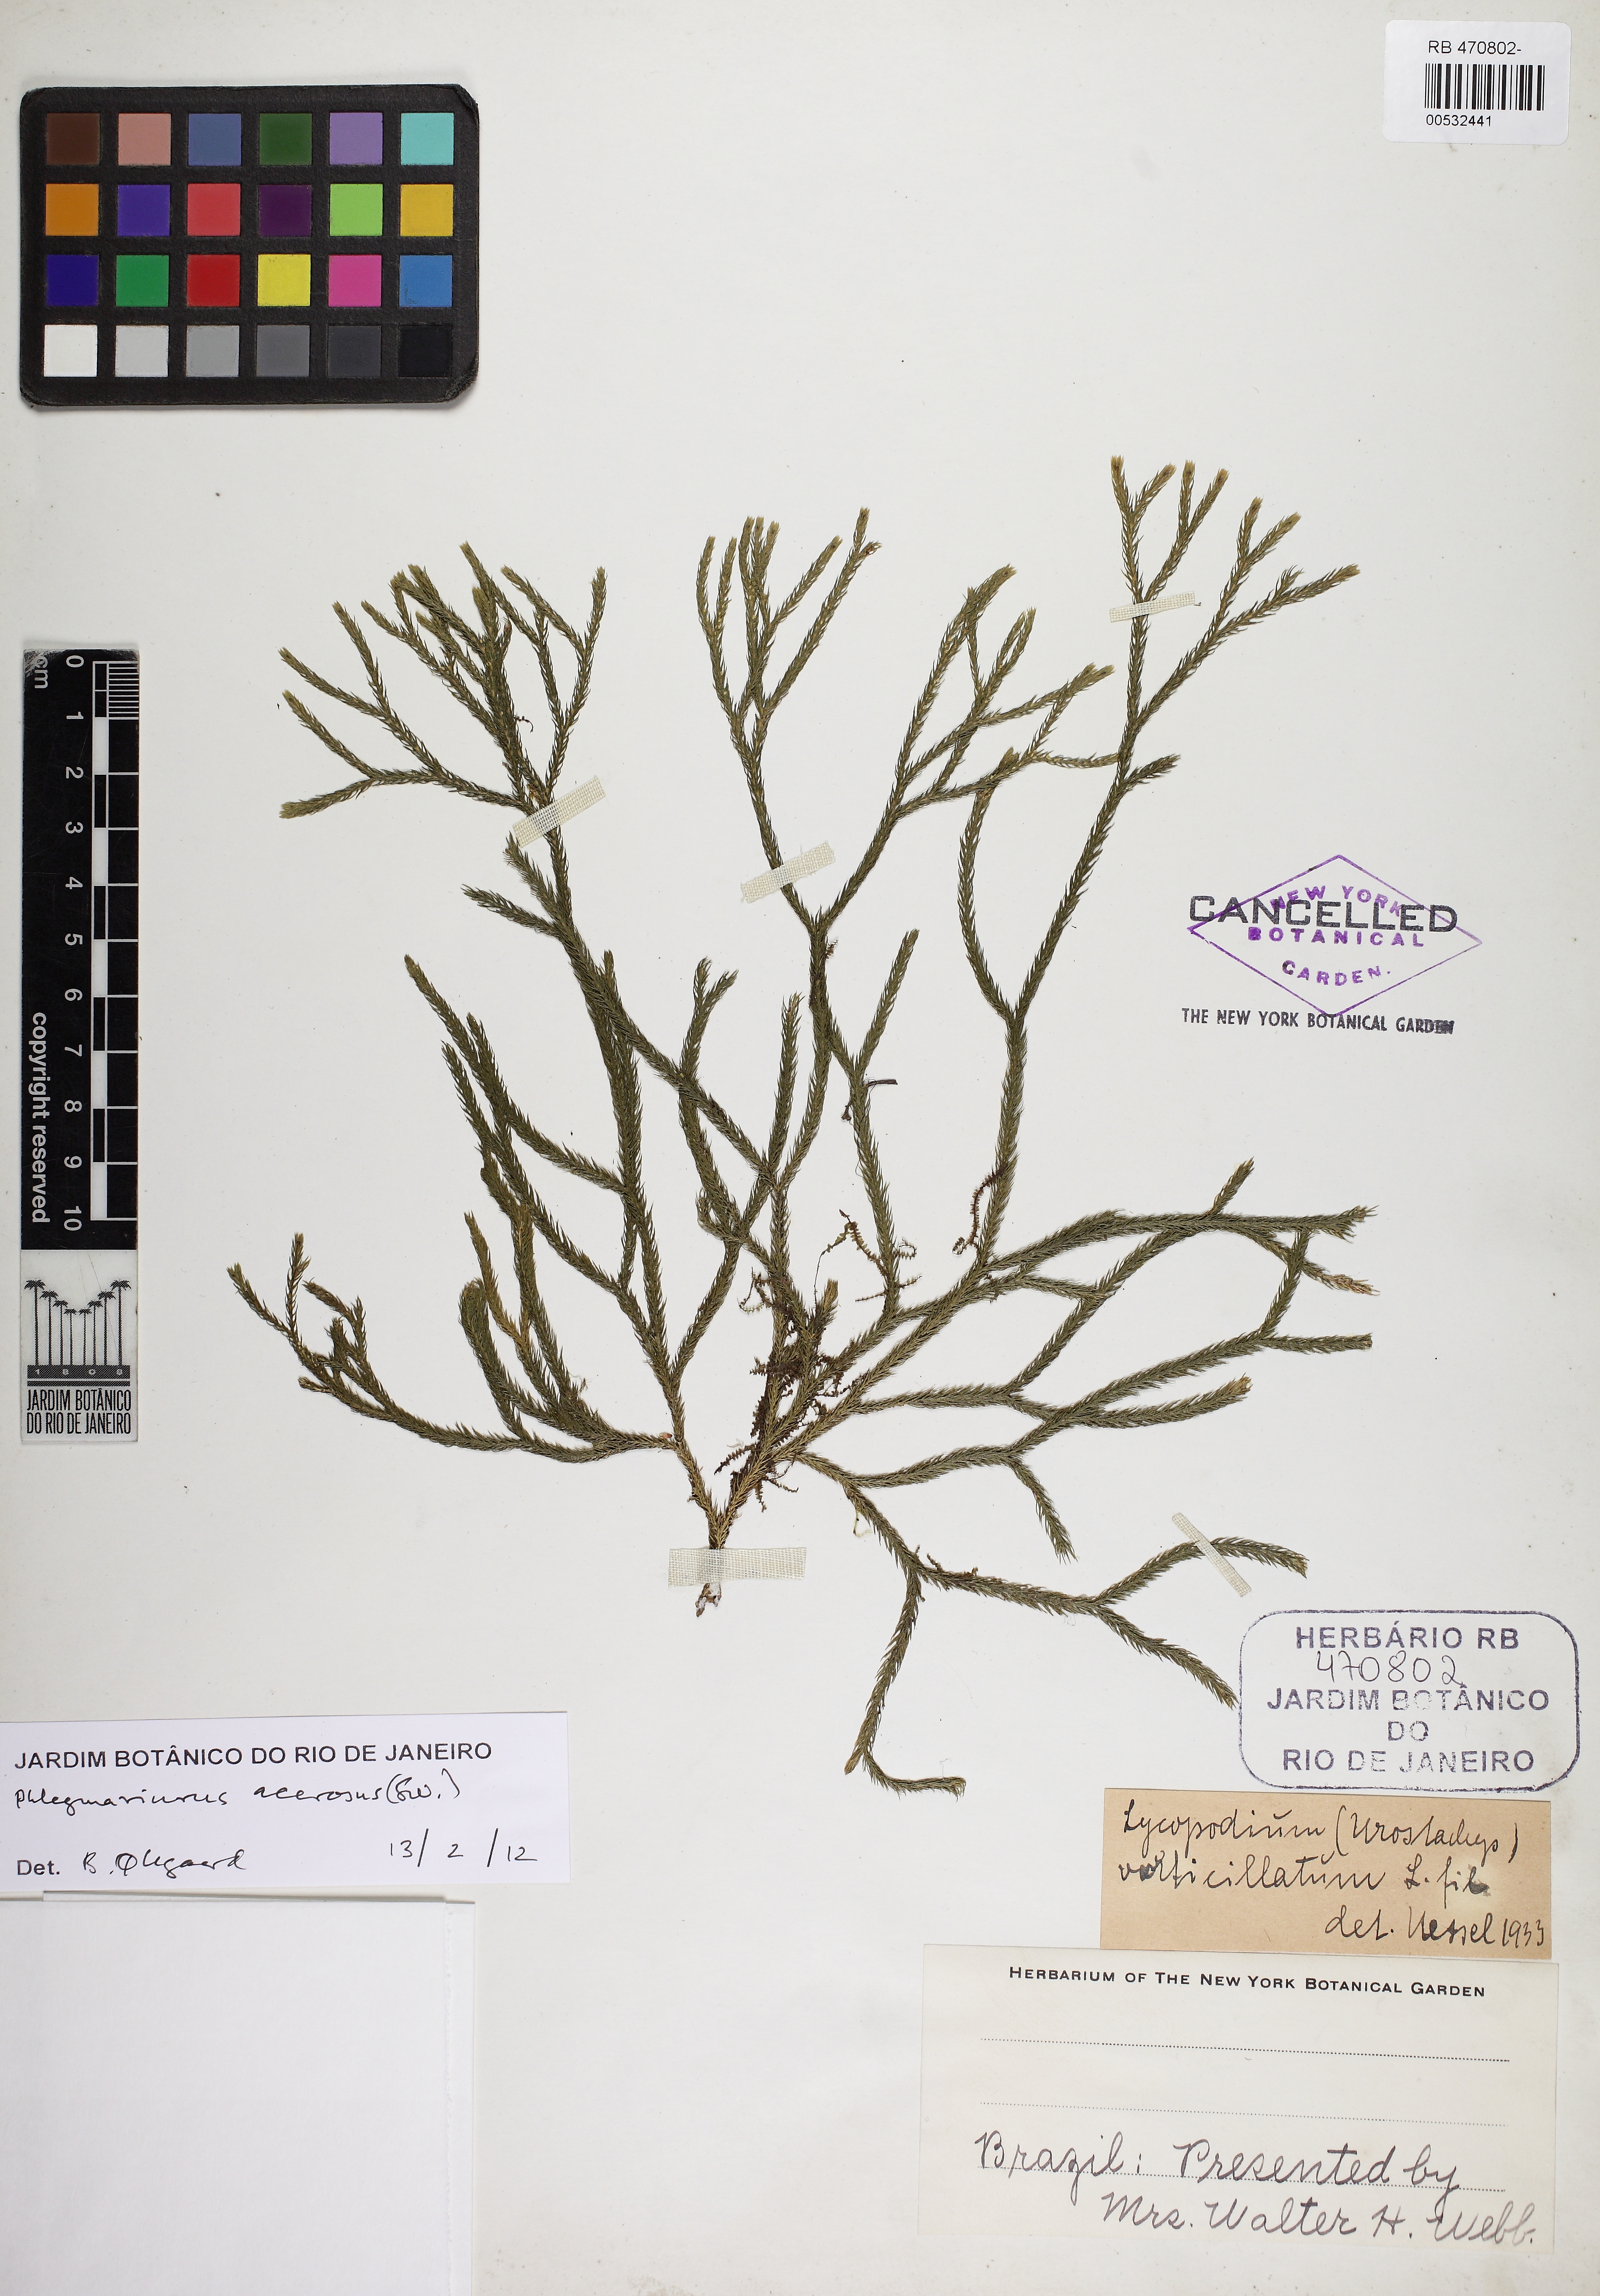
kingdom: Plantae
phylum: Tracheophyta
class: Lycopodiopsida
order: Lycopodiales
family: Lycopodiaceae
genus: Phlegmariurus
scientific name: Phlegmariurus acerosus
